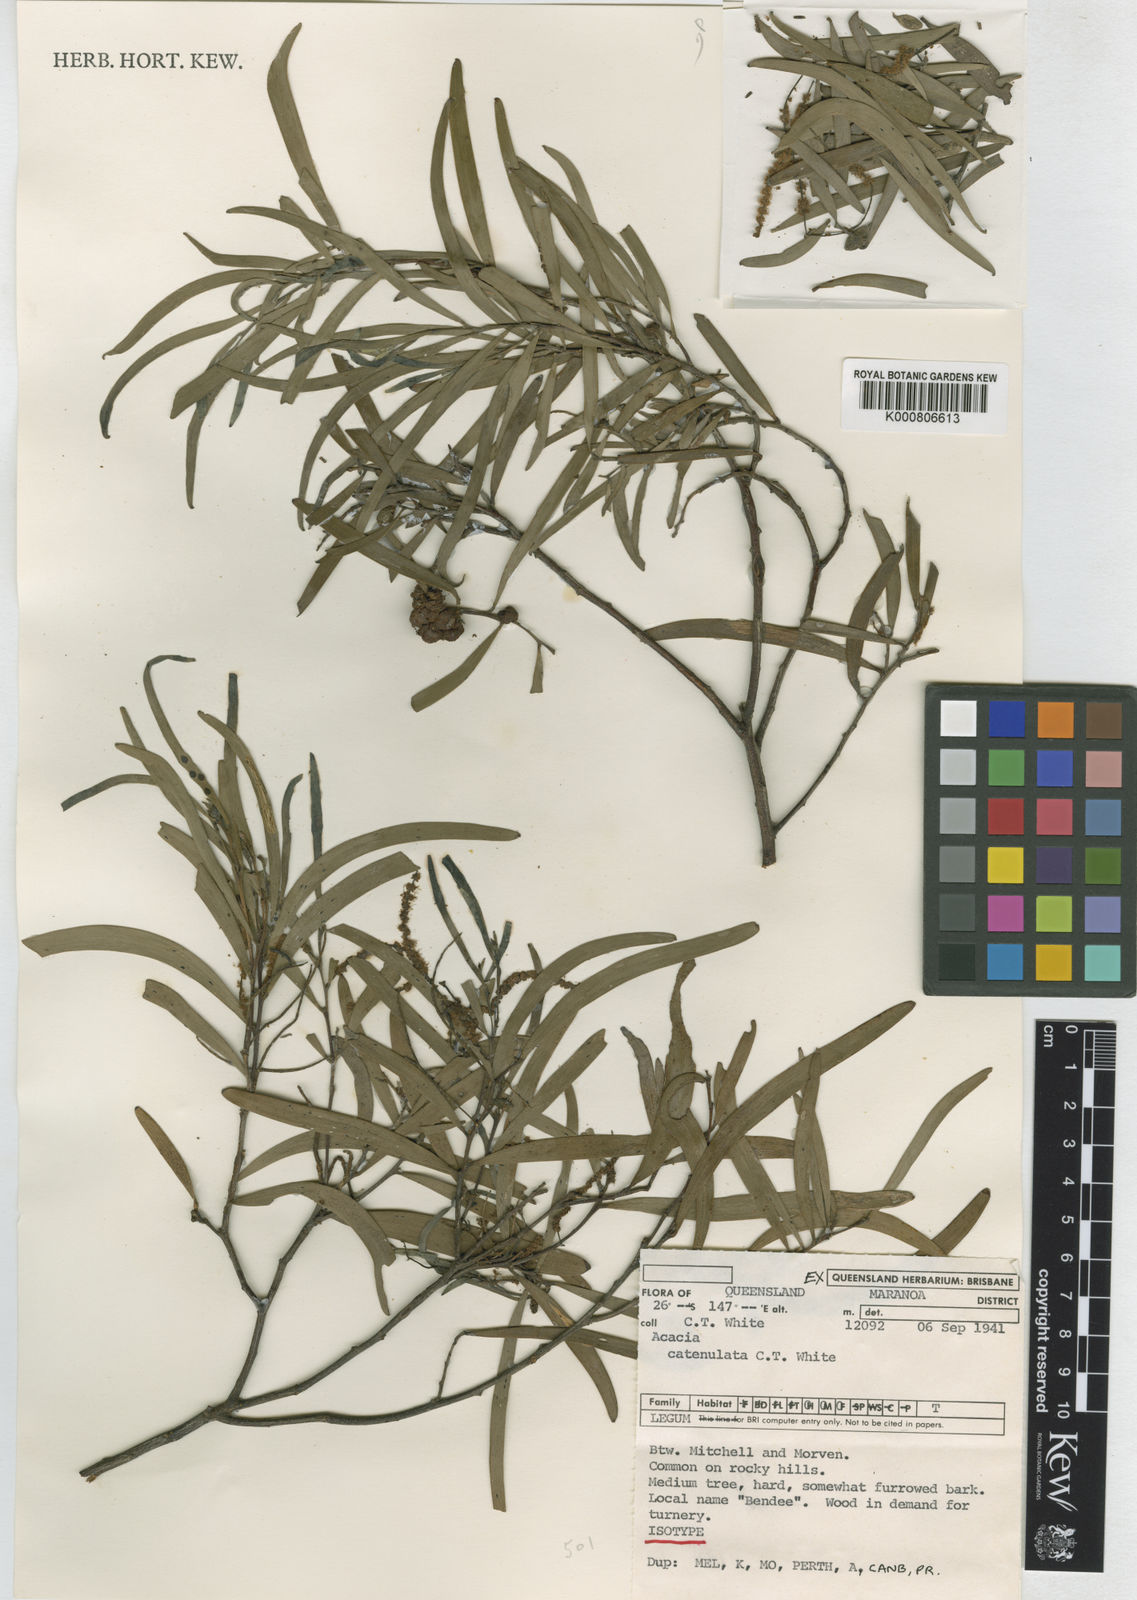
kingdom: Plantae
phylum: Tracheophyta
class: Magnoliopsida
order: Fabales
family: Fabaceae
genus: Acacia
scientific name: Acacia catenulata
